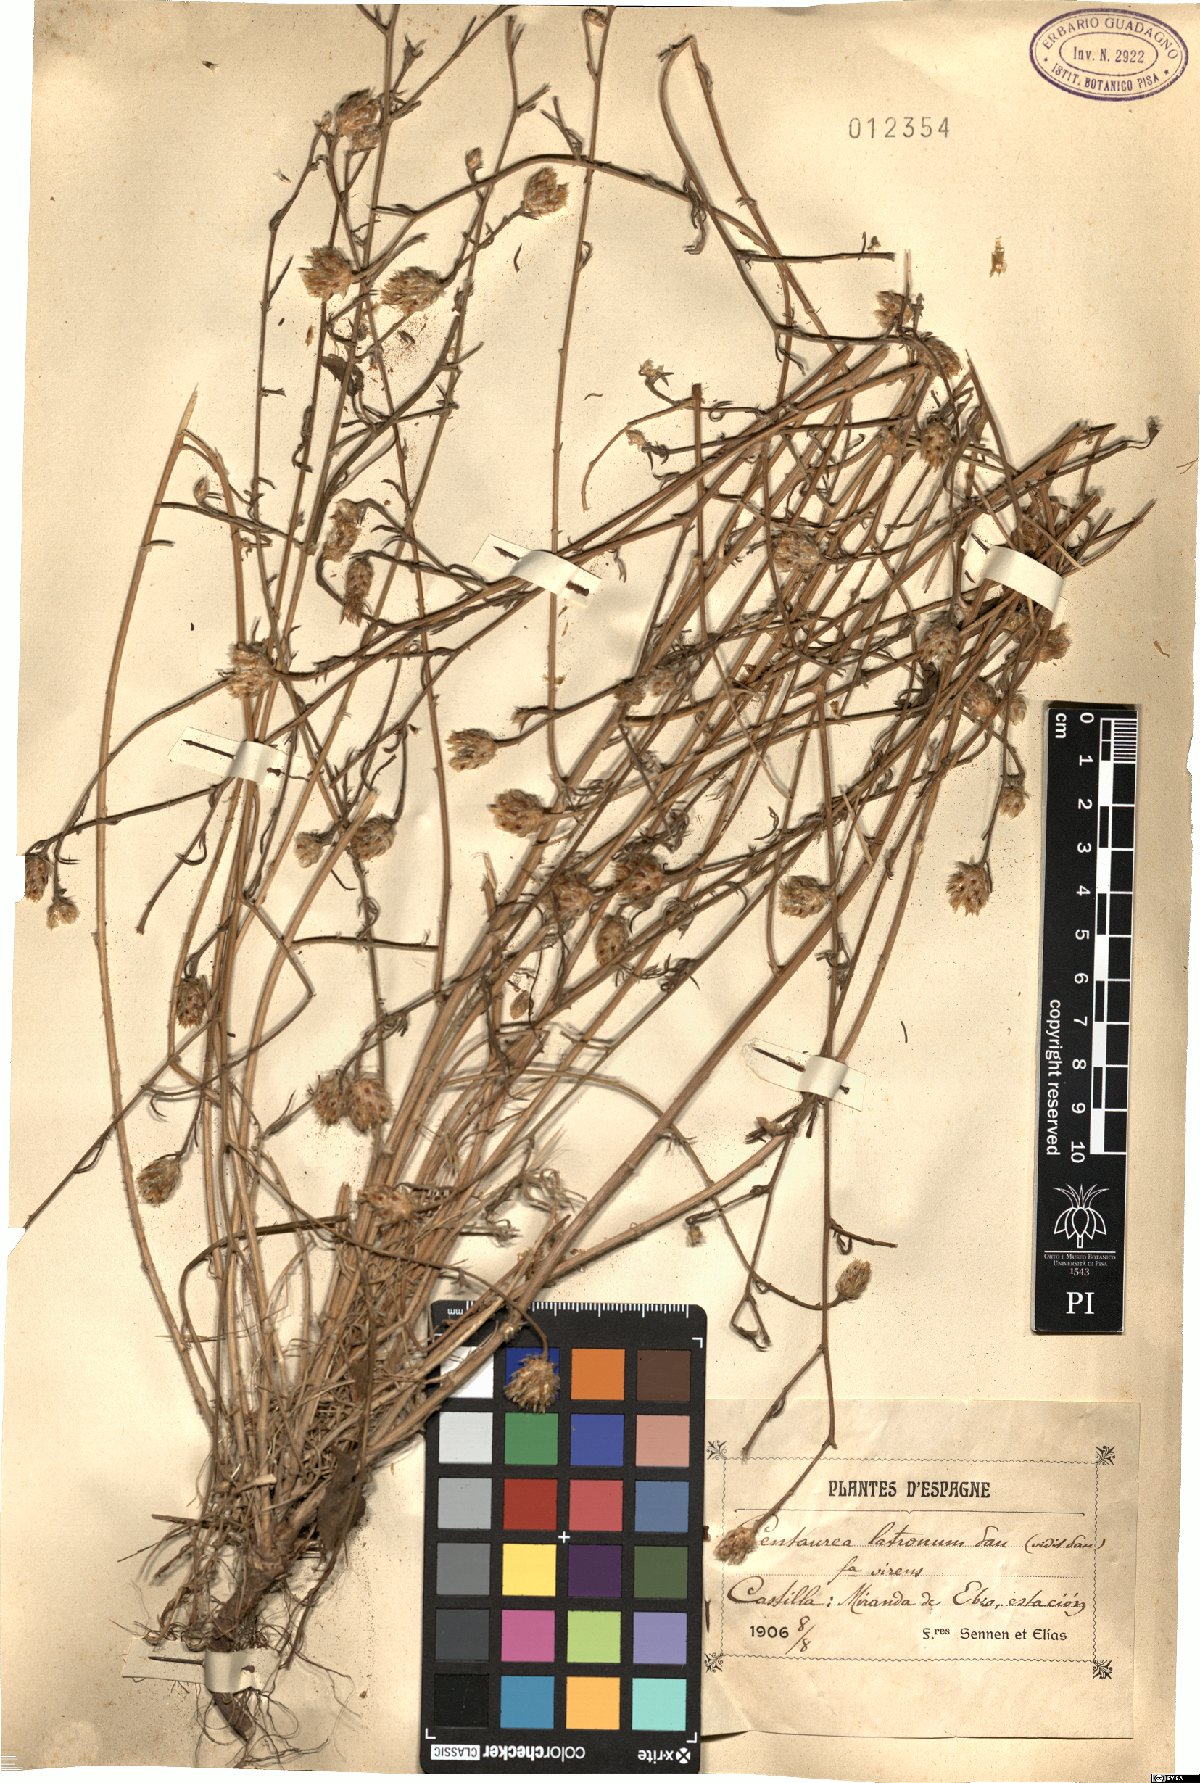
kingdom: Plantae
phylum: Tracheophyta
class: Magnoliopsida
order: Asterales
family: Asteraceae
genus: Centaurea
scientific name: Centaurea alba
